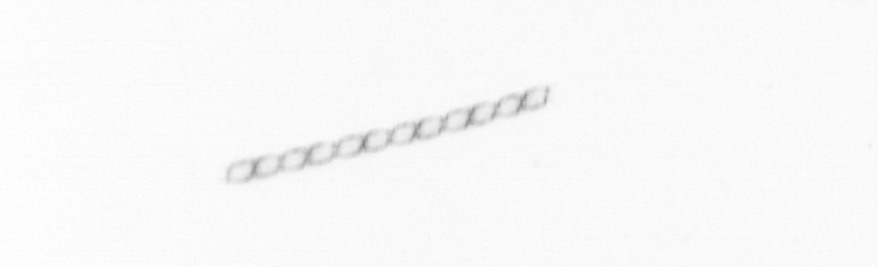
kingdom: Chromista
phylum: Ochrophyta
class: Bacillariophyceae
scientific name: Bacillariophyceae
